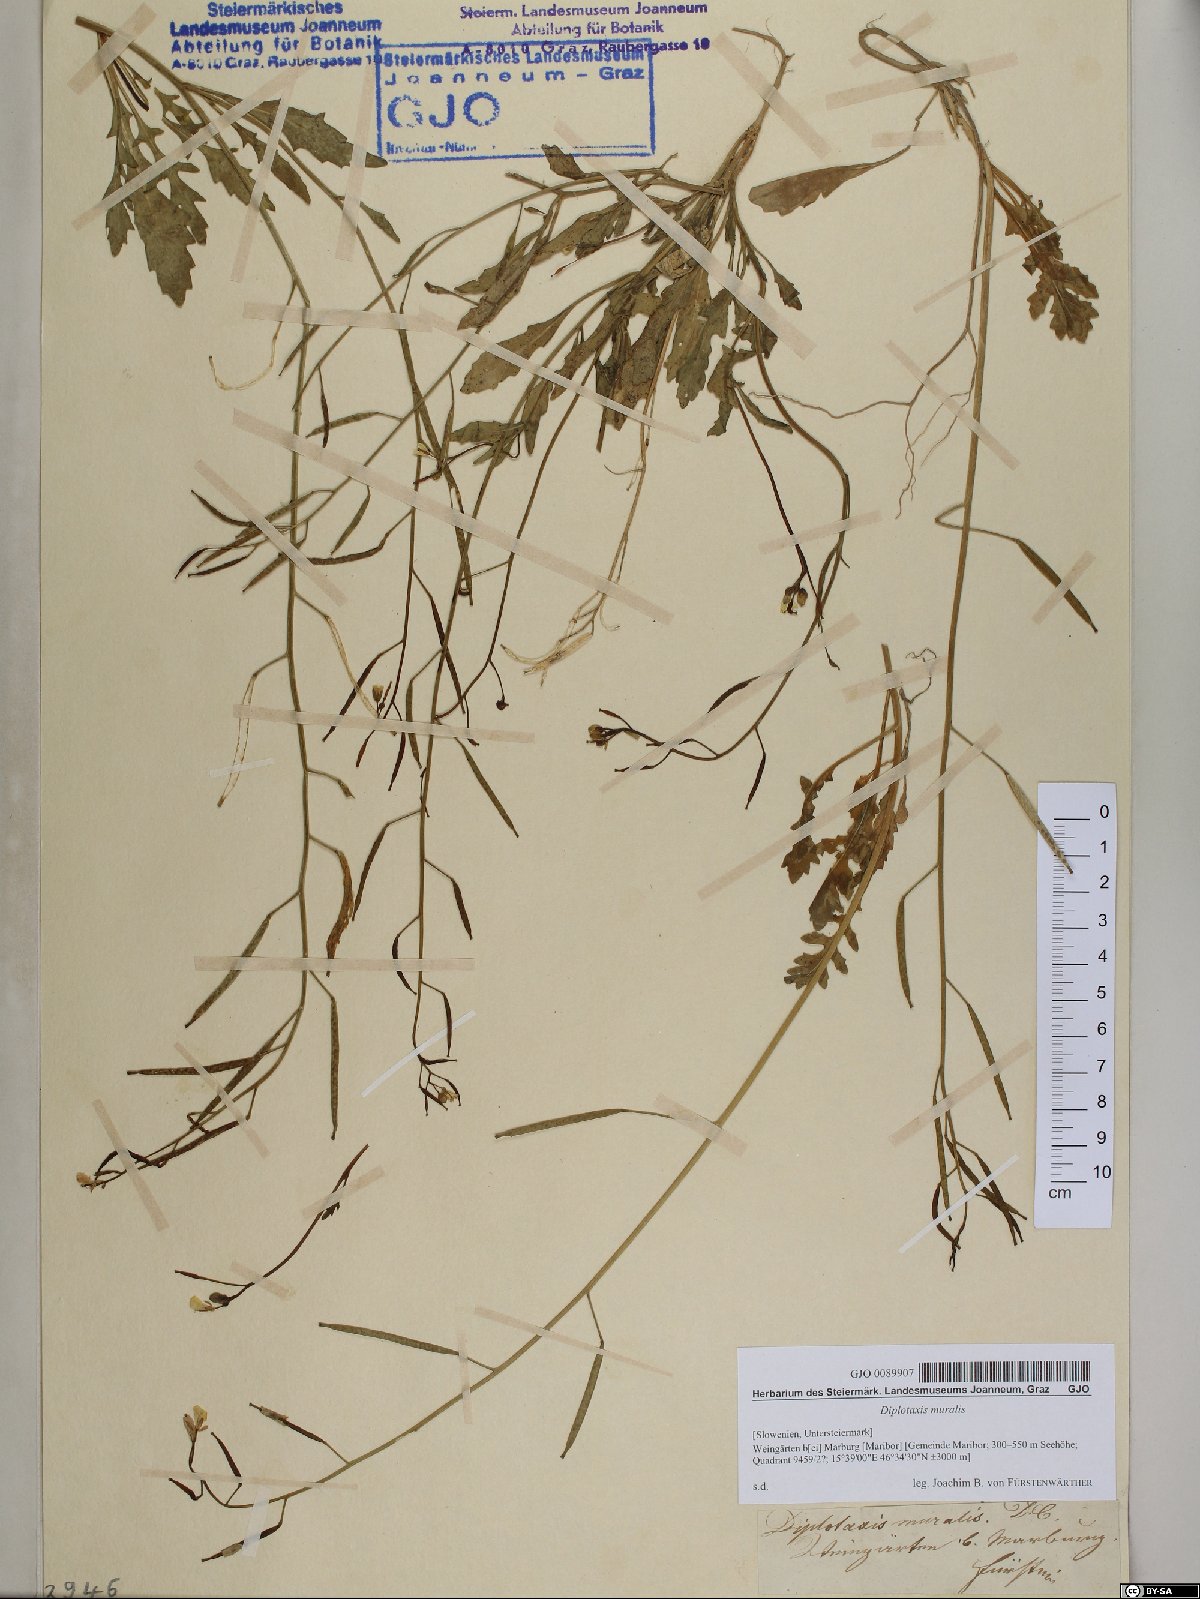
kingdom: Plantae
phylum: Tracheophyta
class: Magnoliopsida
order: Brassicales
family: Brassicaceae
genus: Diplotaxis
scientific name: Diplotaxis muralis
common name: Annual wall-rocket
